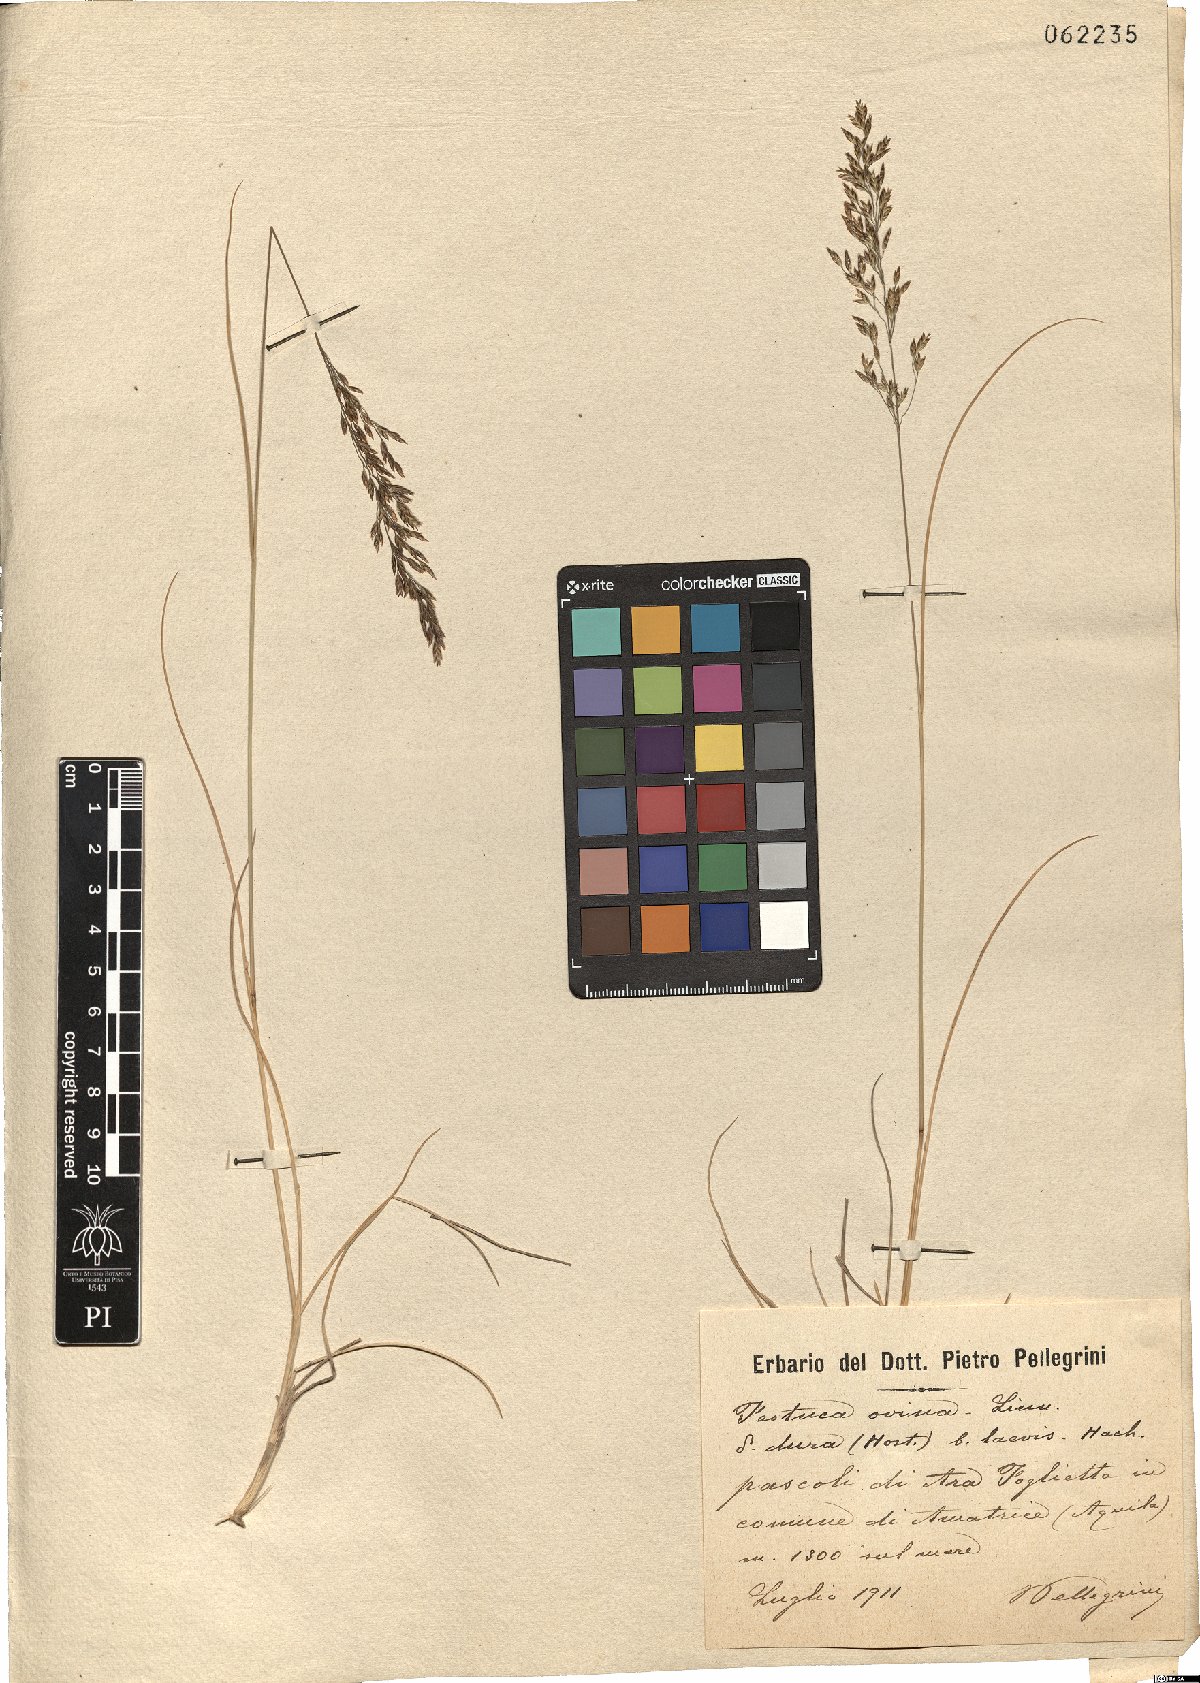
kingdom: Plantae
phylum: Tracheophyta
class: Liliopsida
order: Poales
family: Poaceae
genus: Festuca
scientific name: Festuca circummediterranea
